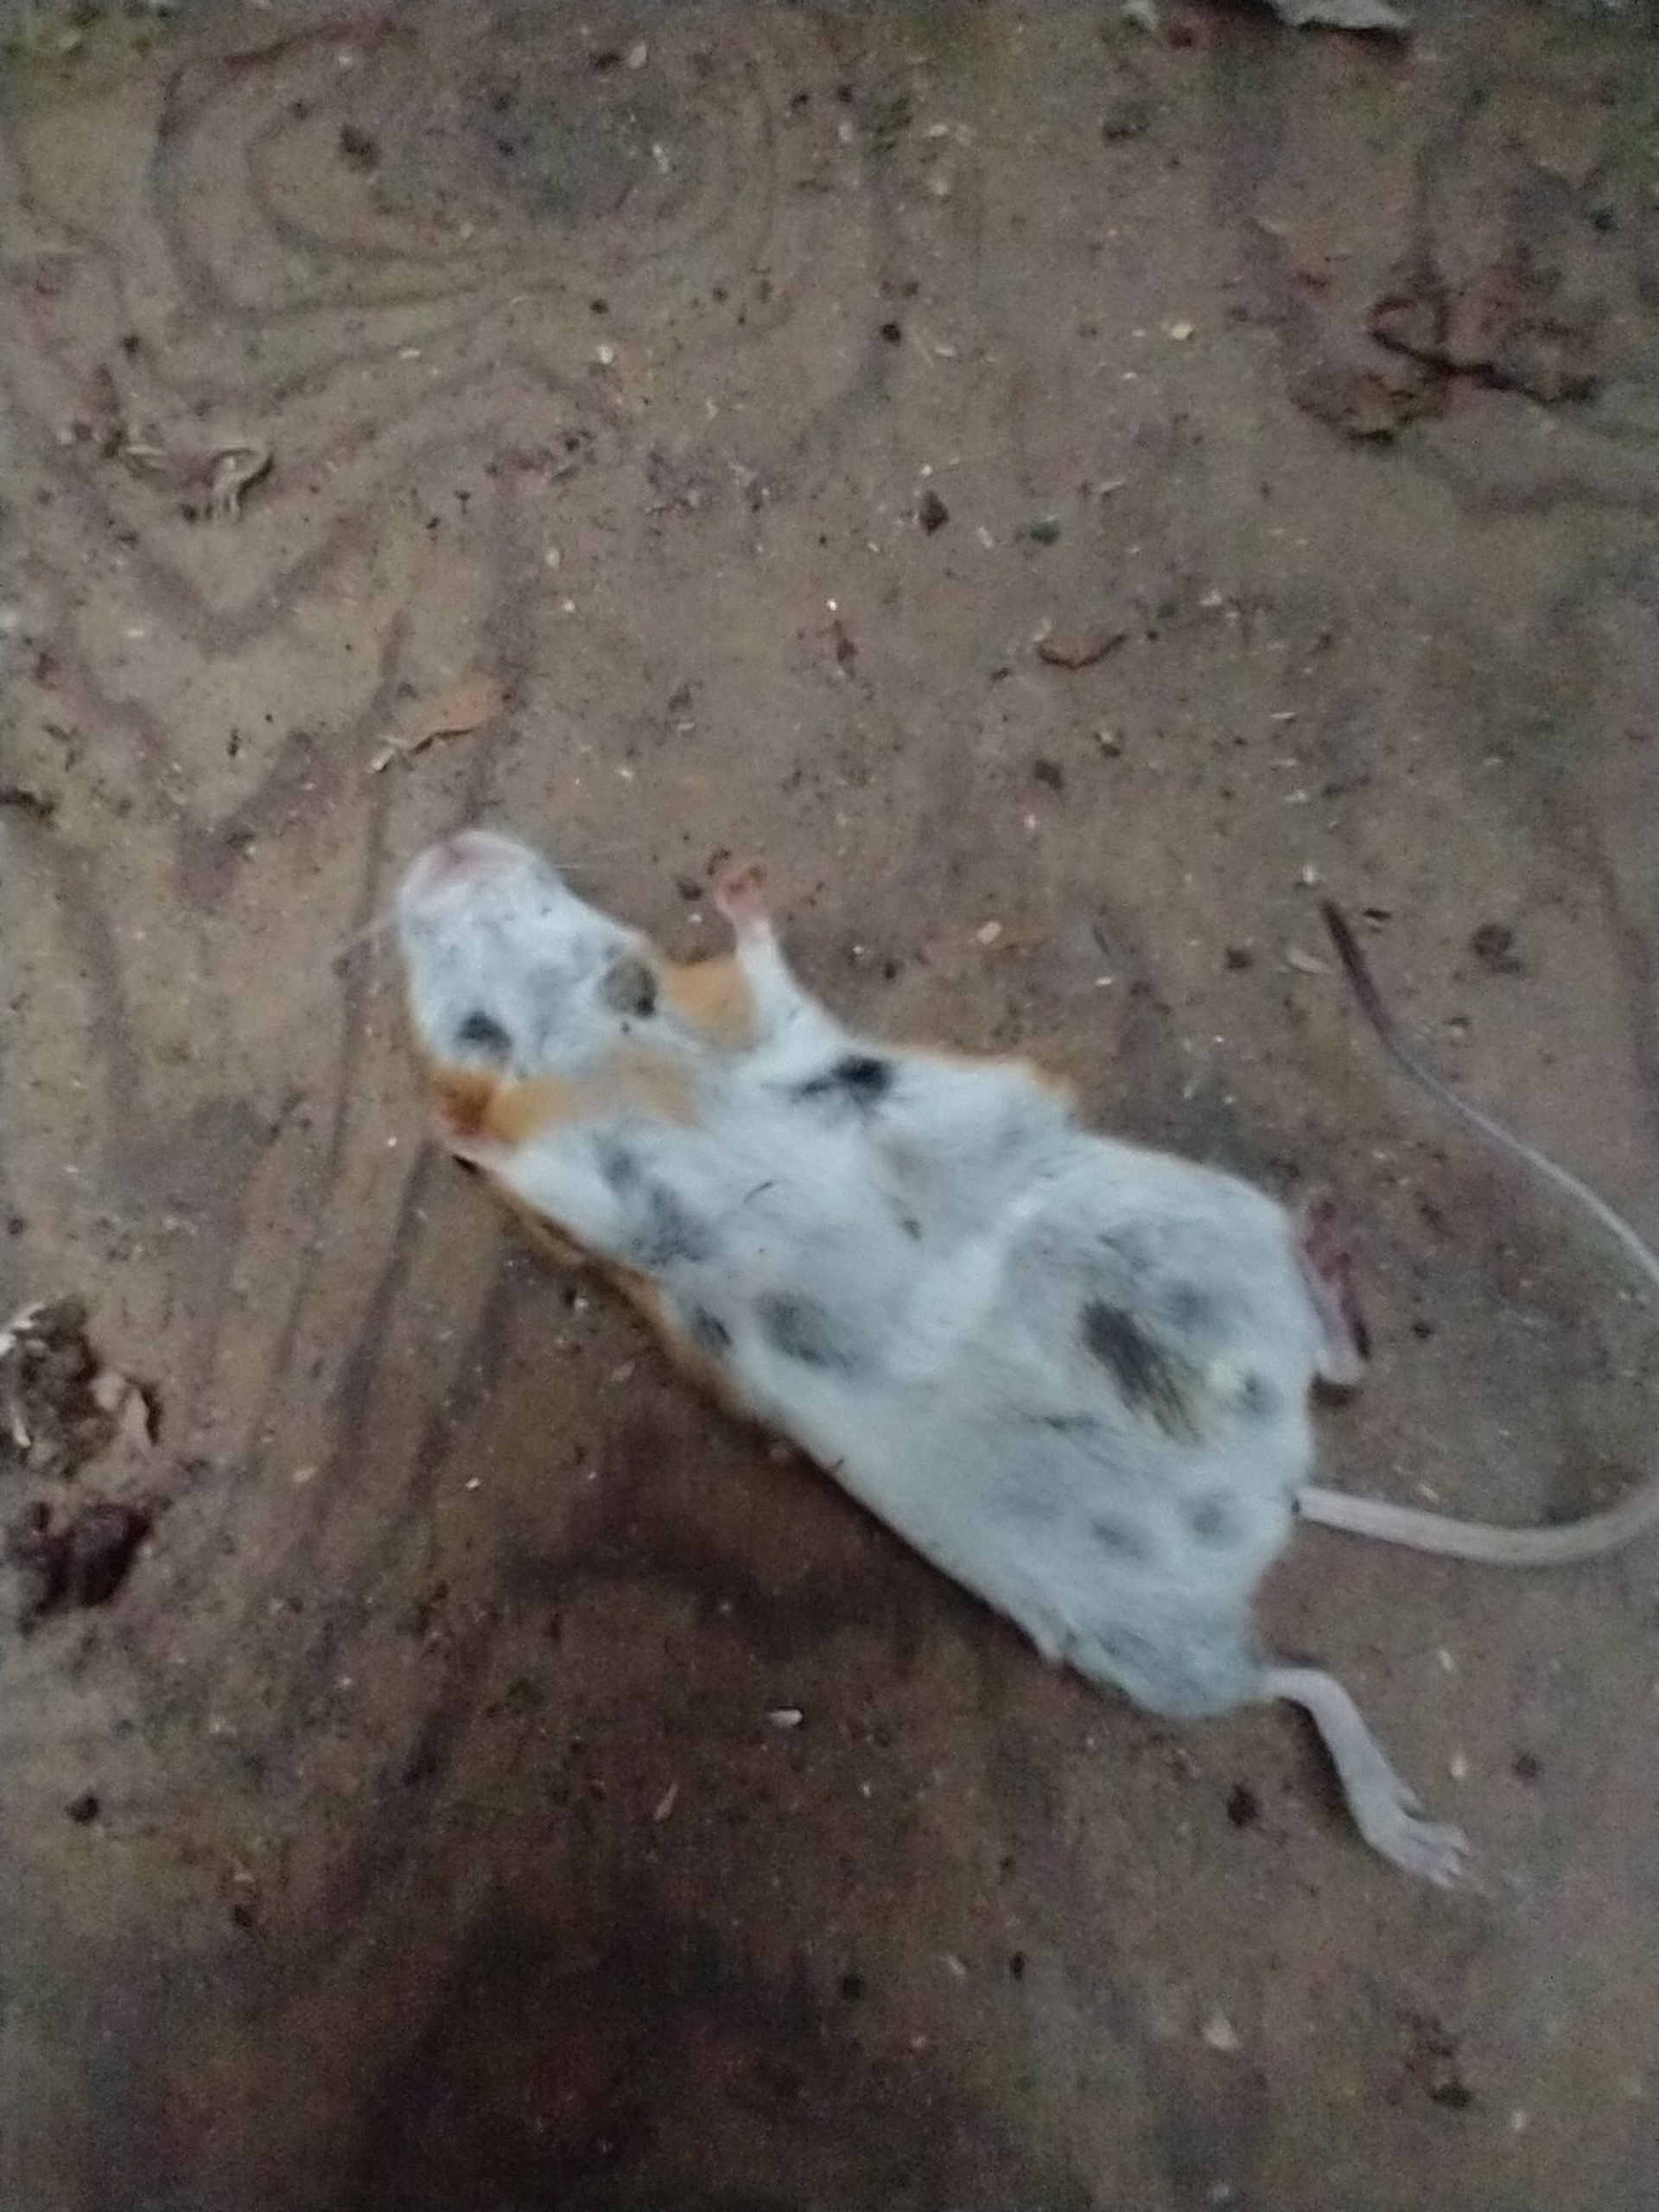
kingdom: Animalia
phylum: Chordata
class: Mammalia
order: Rodentia
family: Muridae
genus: Apodemus
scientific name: Apodemus flavicollis
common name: Halsbåndmus
